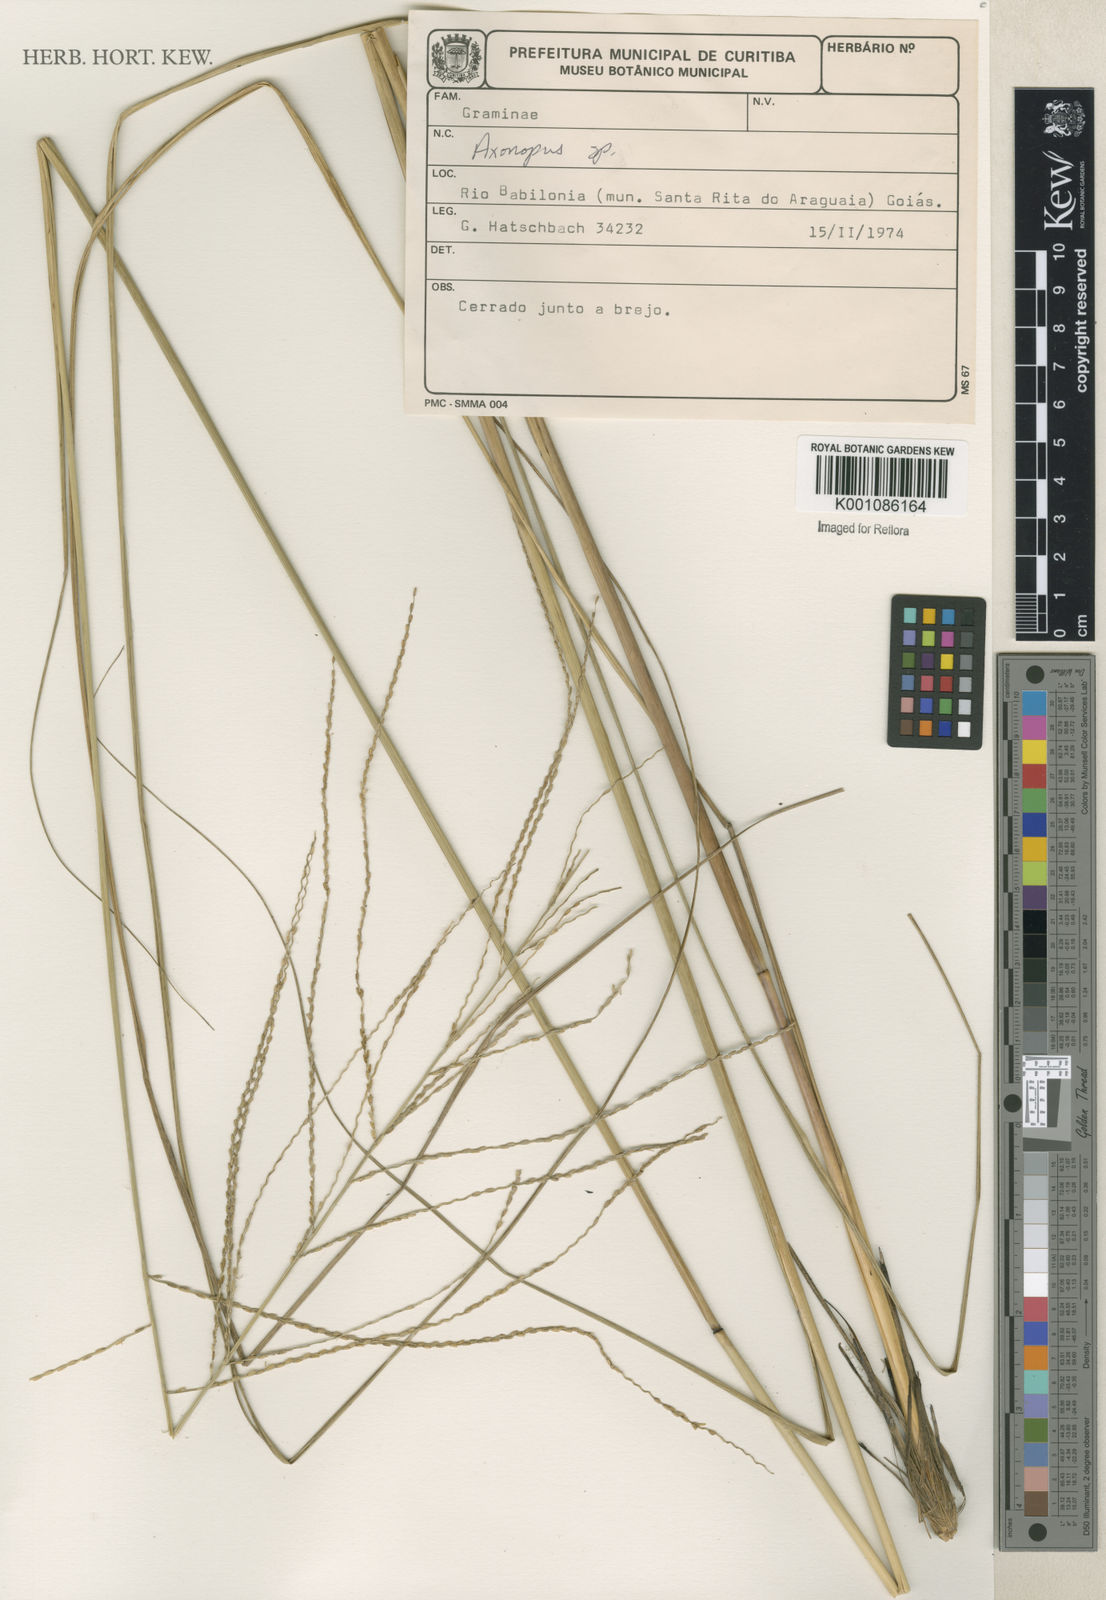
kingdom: Plantae
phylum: Tracheophyta
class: Liliopsida
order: Poales
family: Poaceae
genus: Axonopus
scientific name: Axonopus
